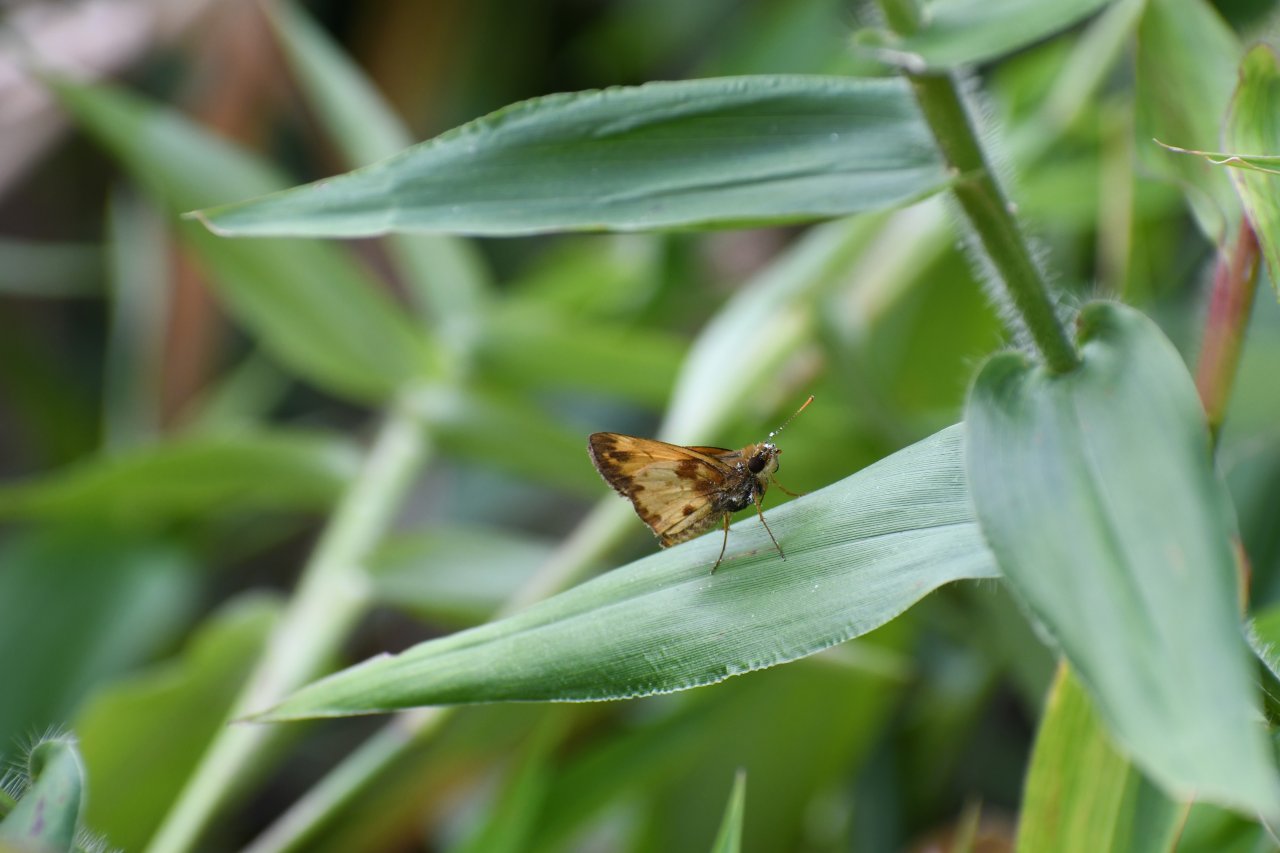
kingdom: Animalia
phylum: Arthropoda
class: Insecta
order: Lepidoptera
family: Hesperiidae
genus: Lon
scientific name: Lon zabulon
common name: Zabulon Skipper
